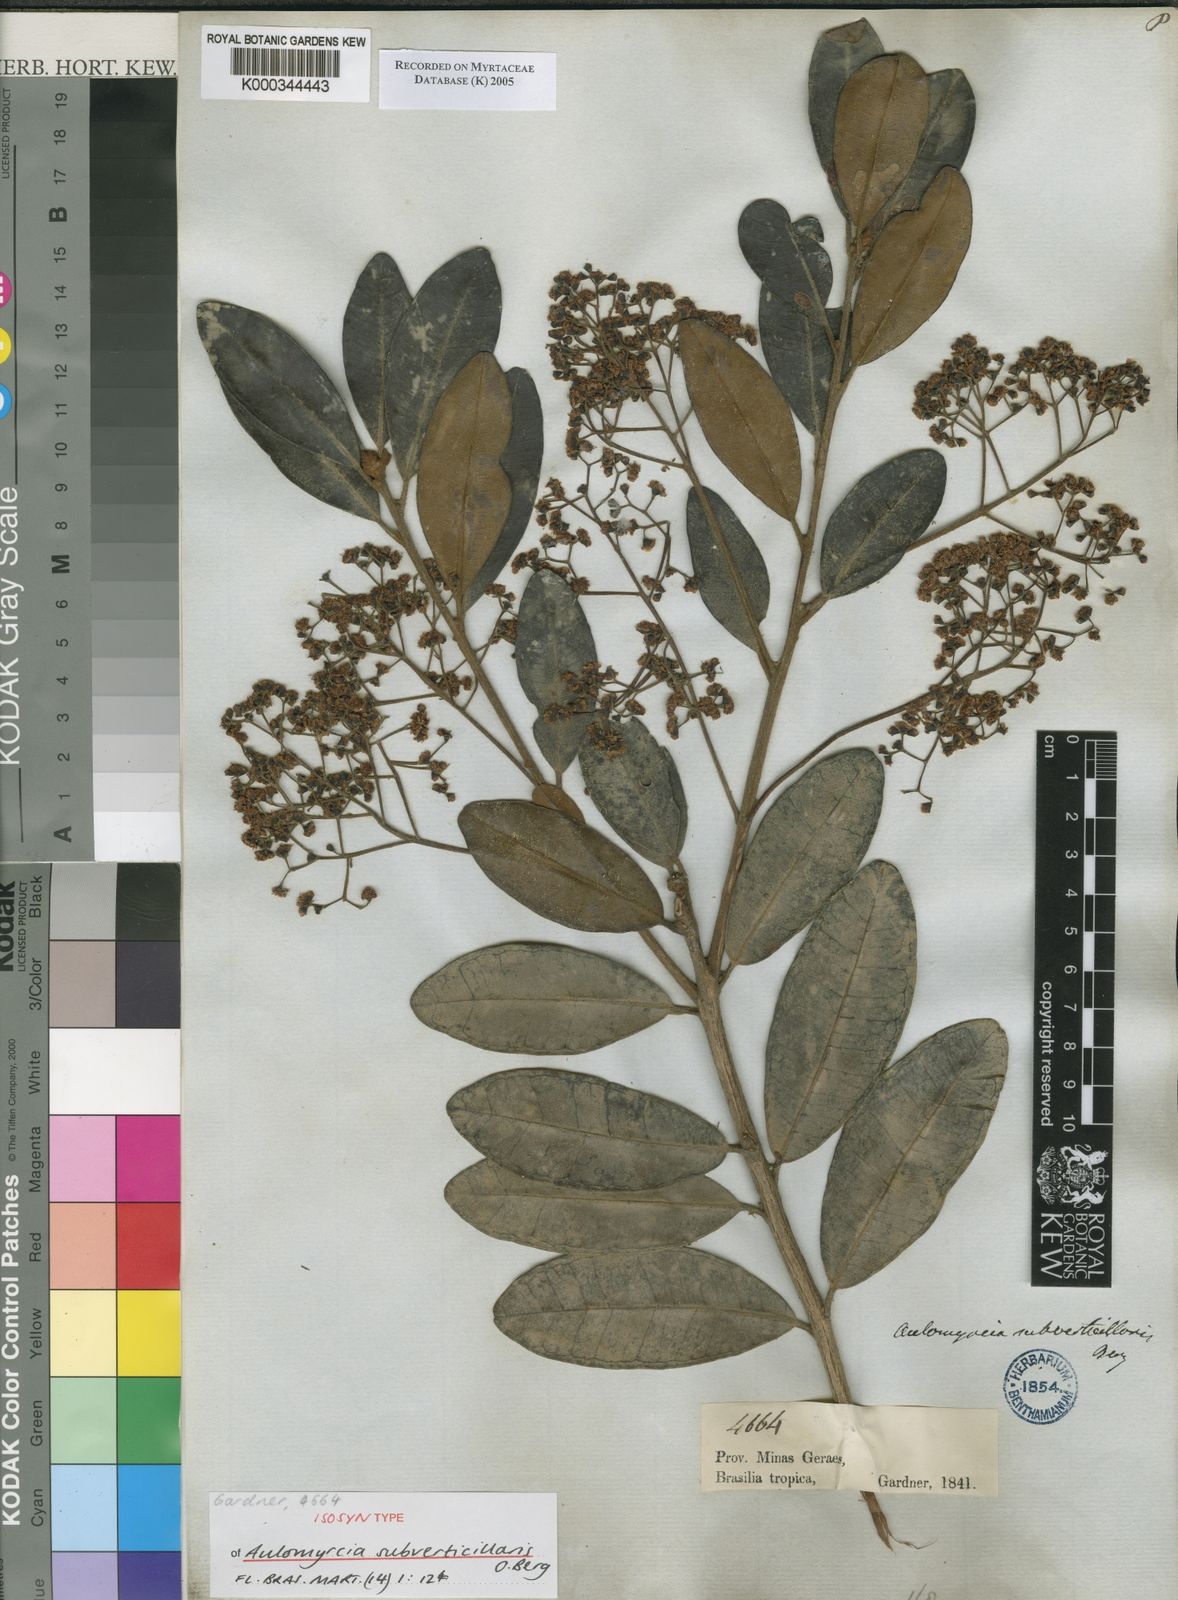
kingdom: Plantae
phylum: Tracheophyta
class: Magnoliopsida
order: Myrtales
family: Myrtaceae
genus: Myrcia
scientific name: Myrcia
